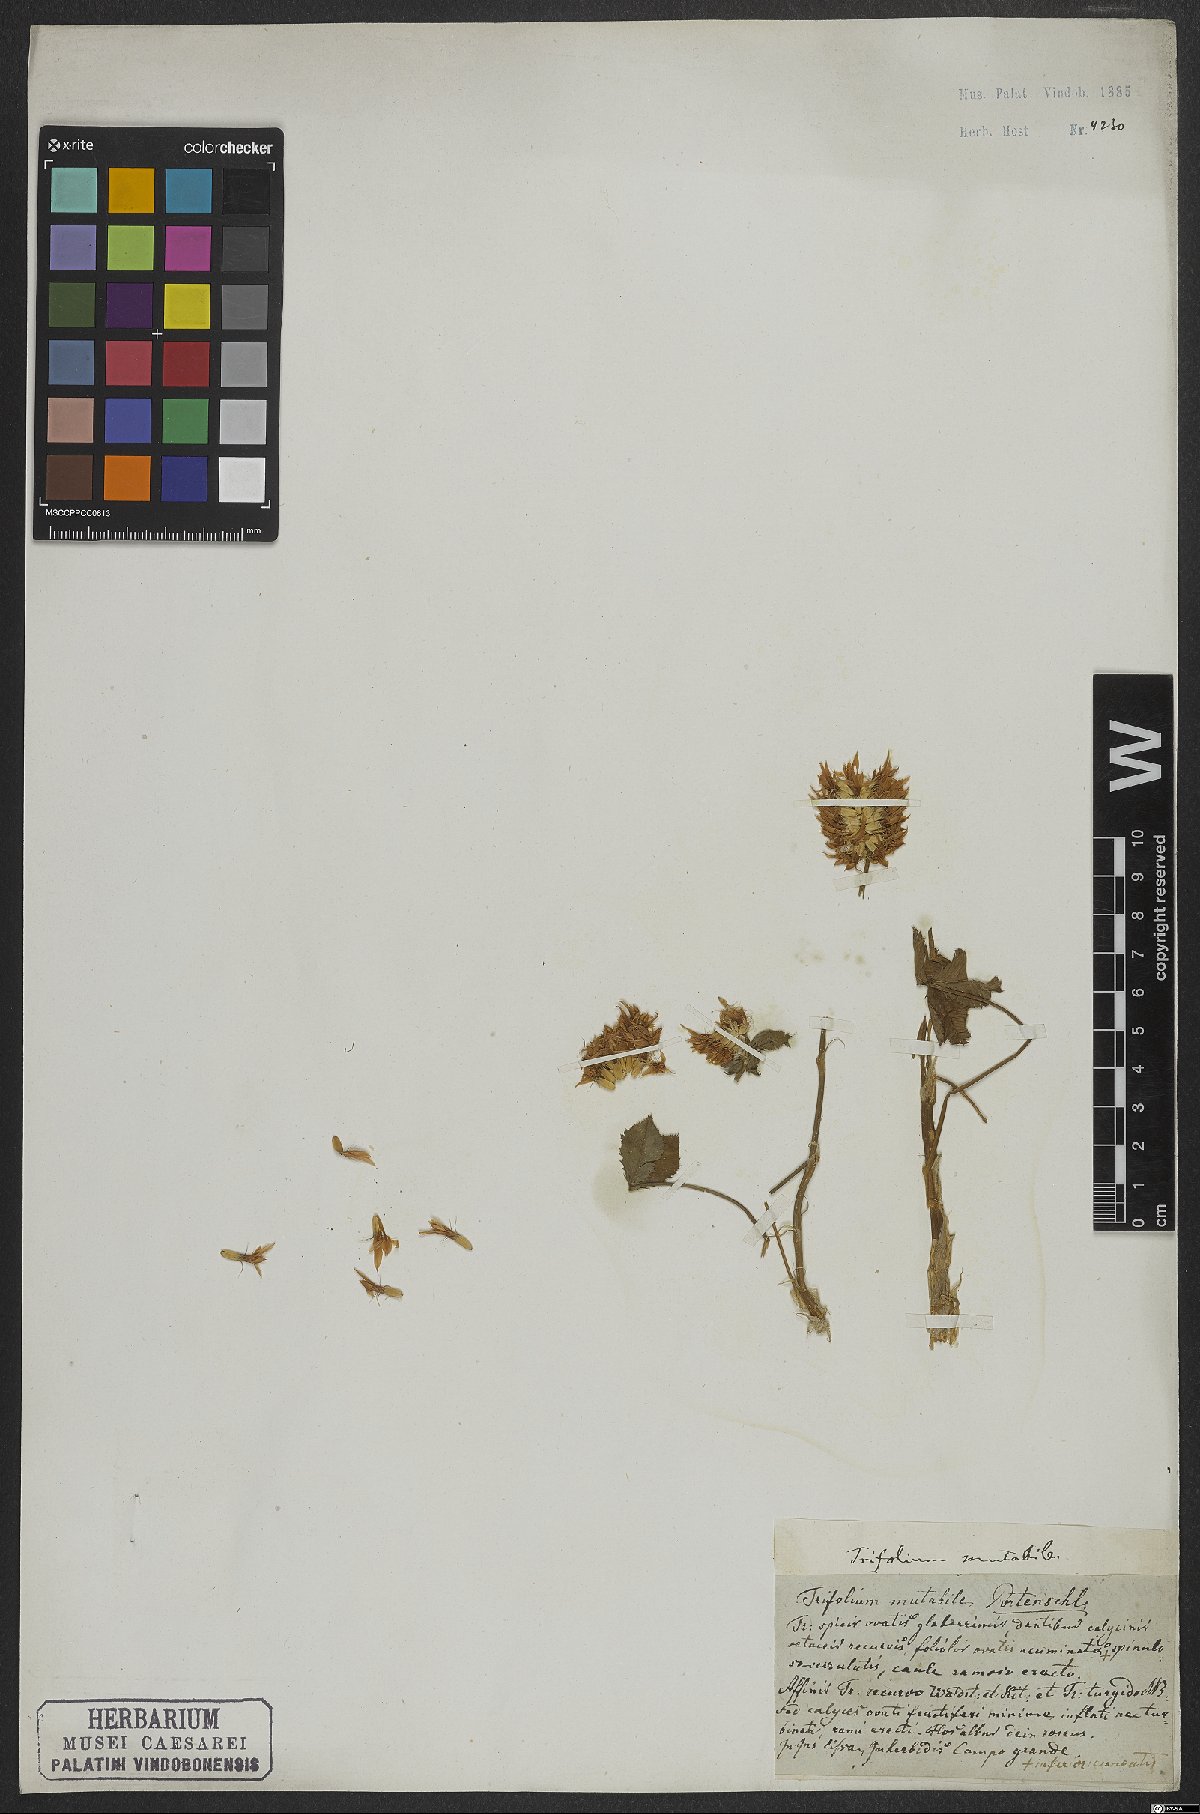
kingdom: Plantae
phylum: Tracheophyta
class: Magnoliopsida
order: Fabales
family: Fabaceae
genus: Trifolium
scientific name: Trifolium mutabile
